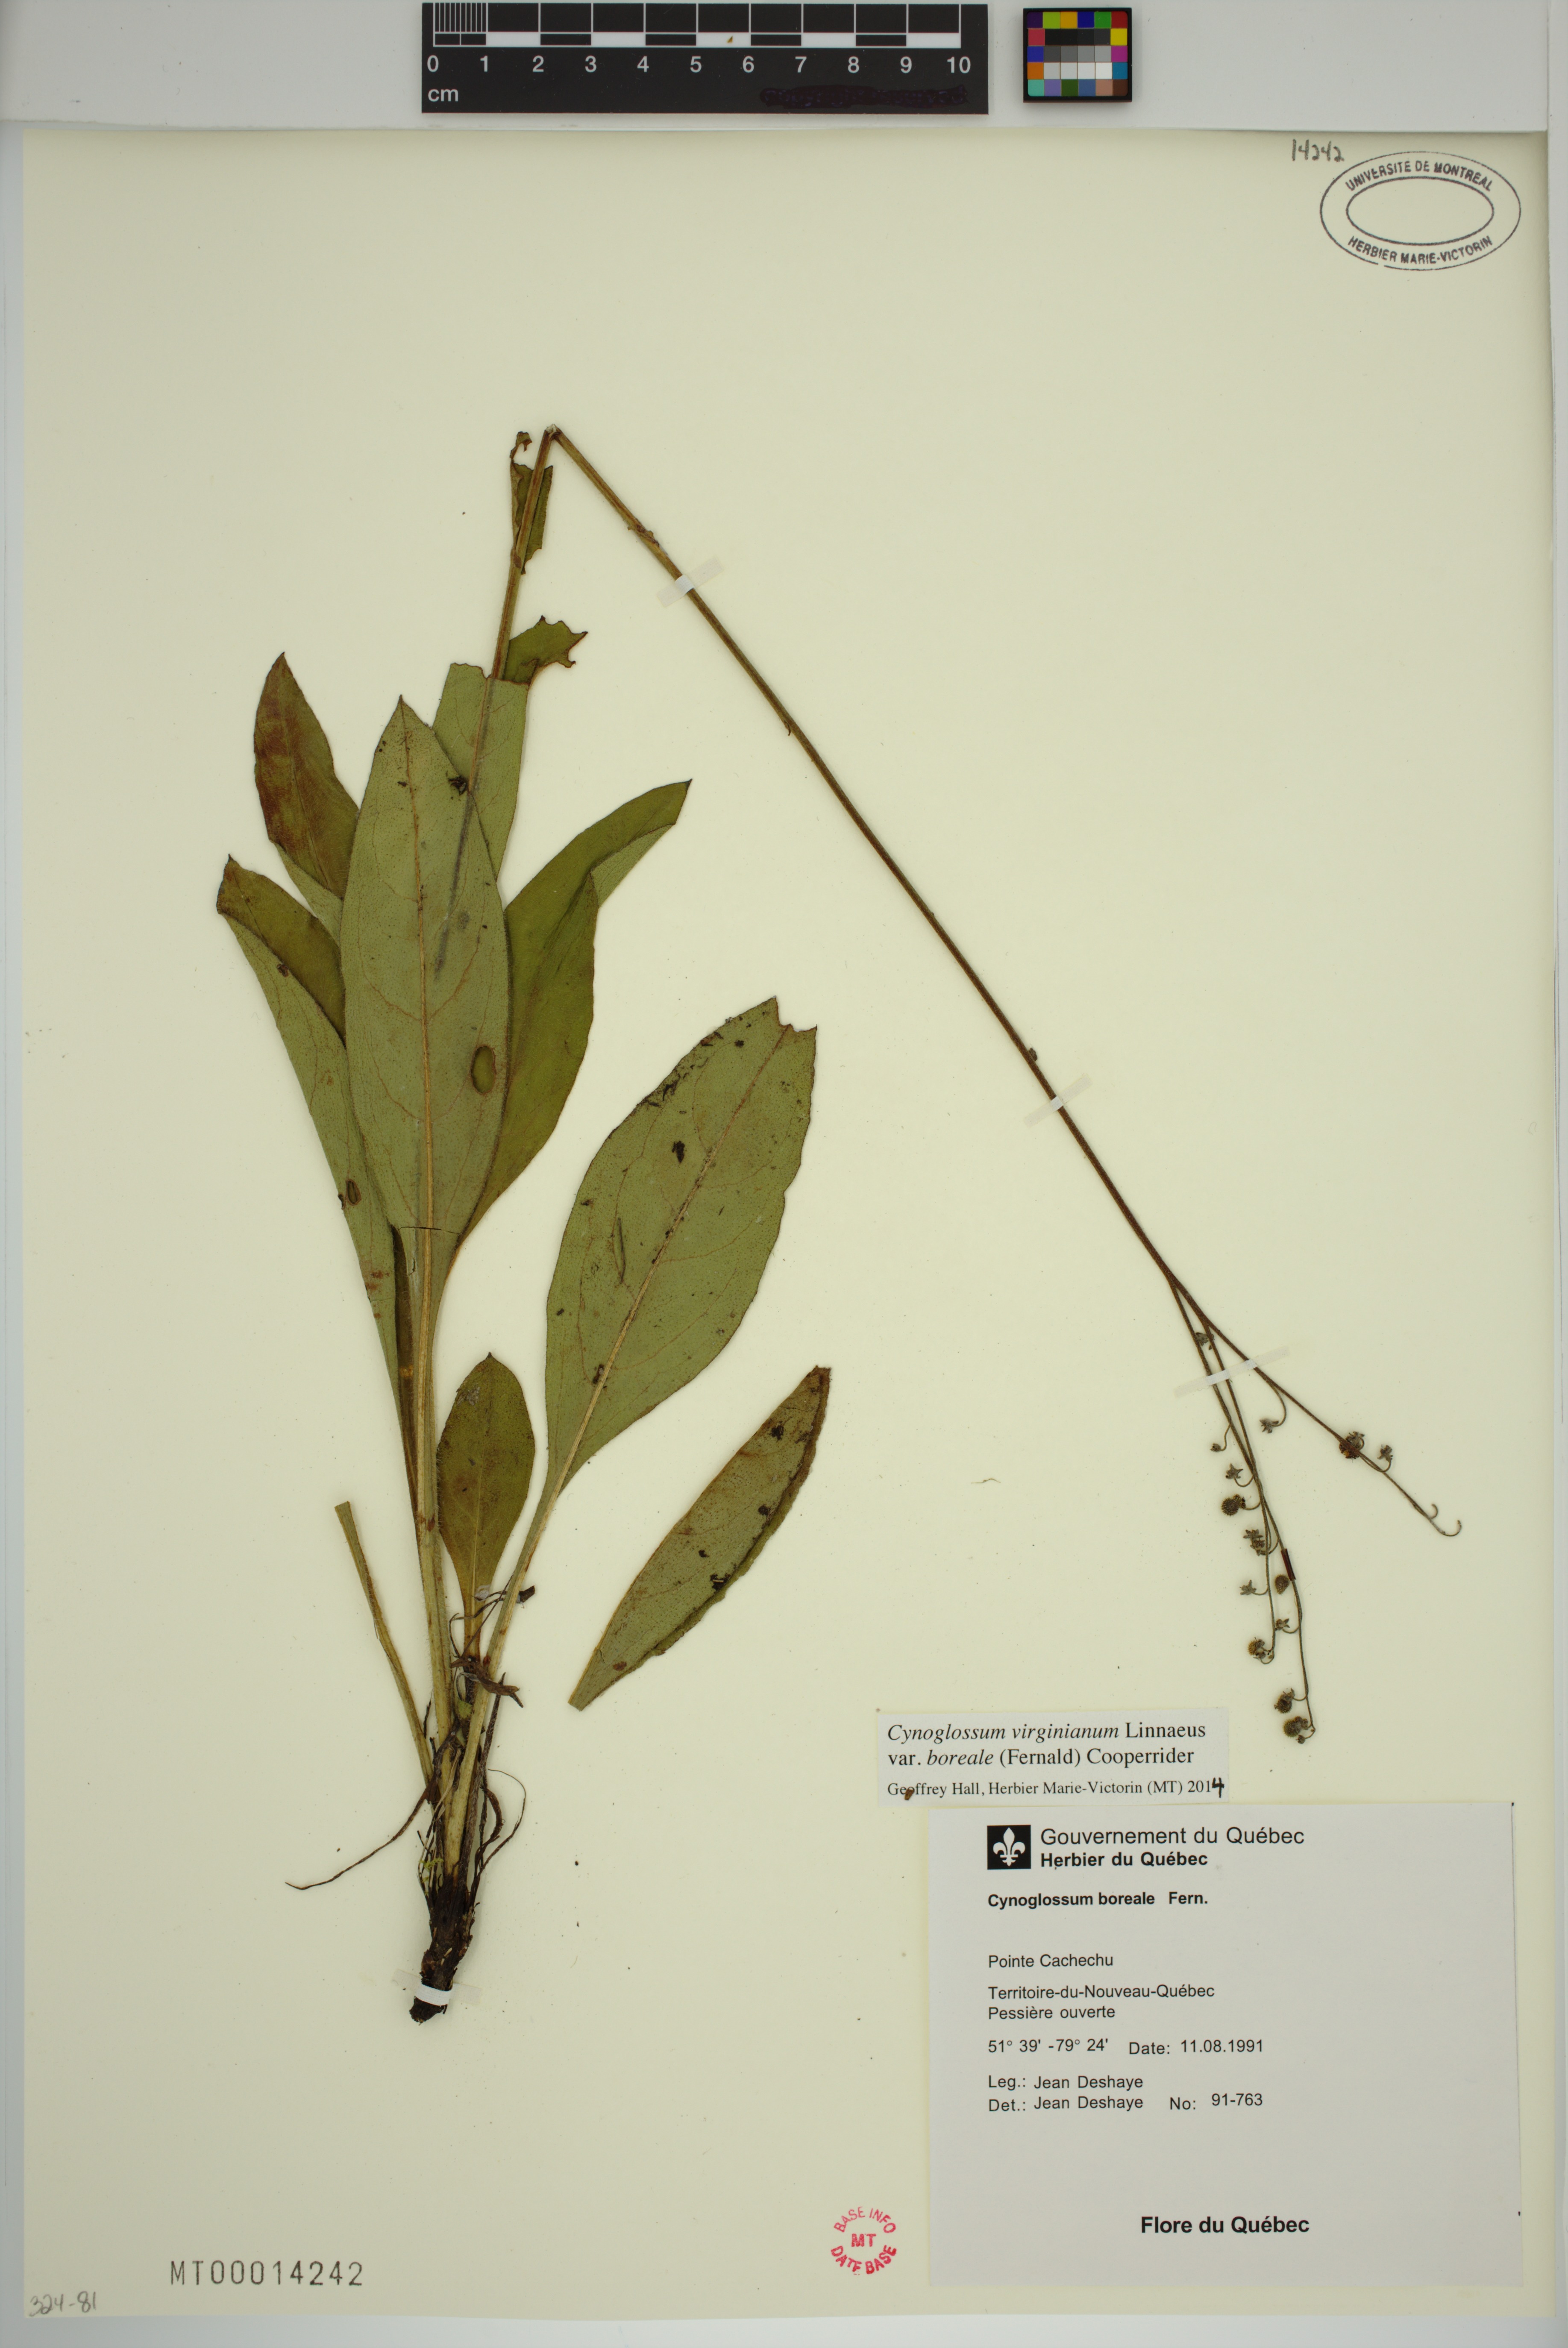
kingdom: Plantae
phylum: Tracheophyta
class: Magnoliopsida
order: Boraginales
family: Boraginaceae
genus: Andersonglossum
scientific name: Andersonglossum boreale
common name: Northern hound's-tongue
